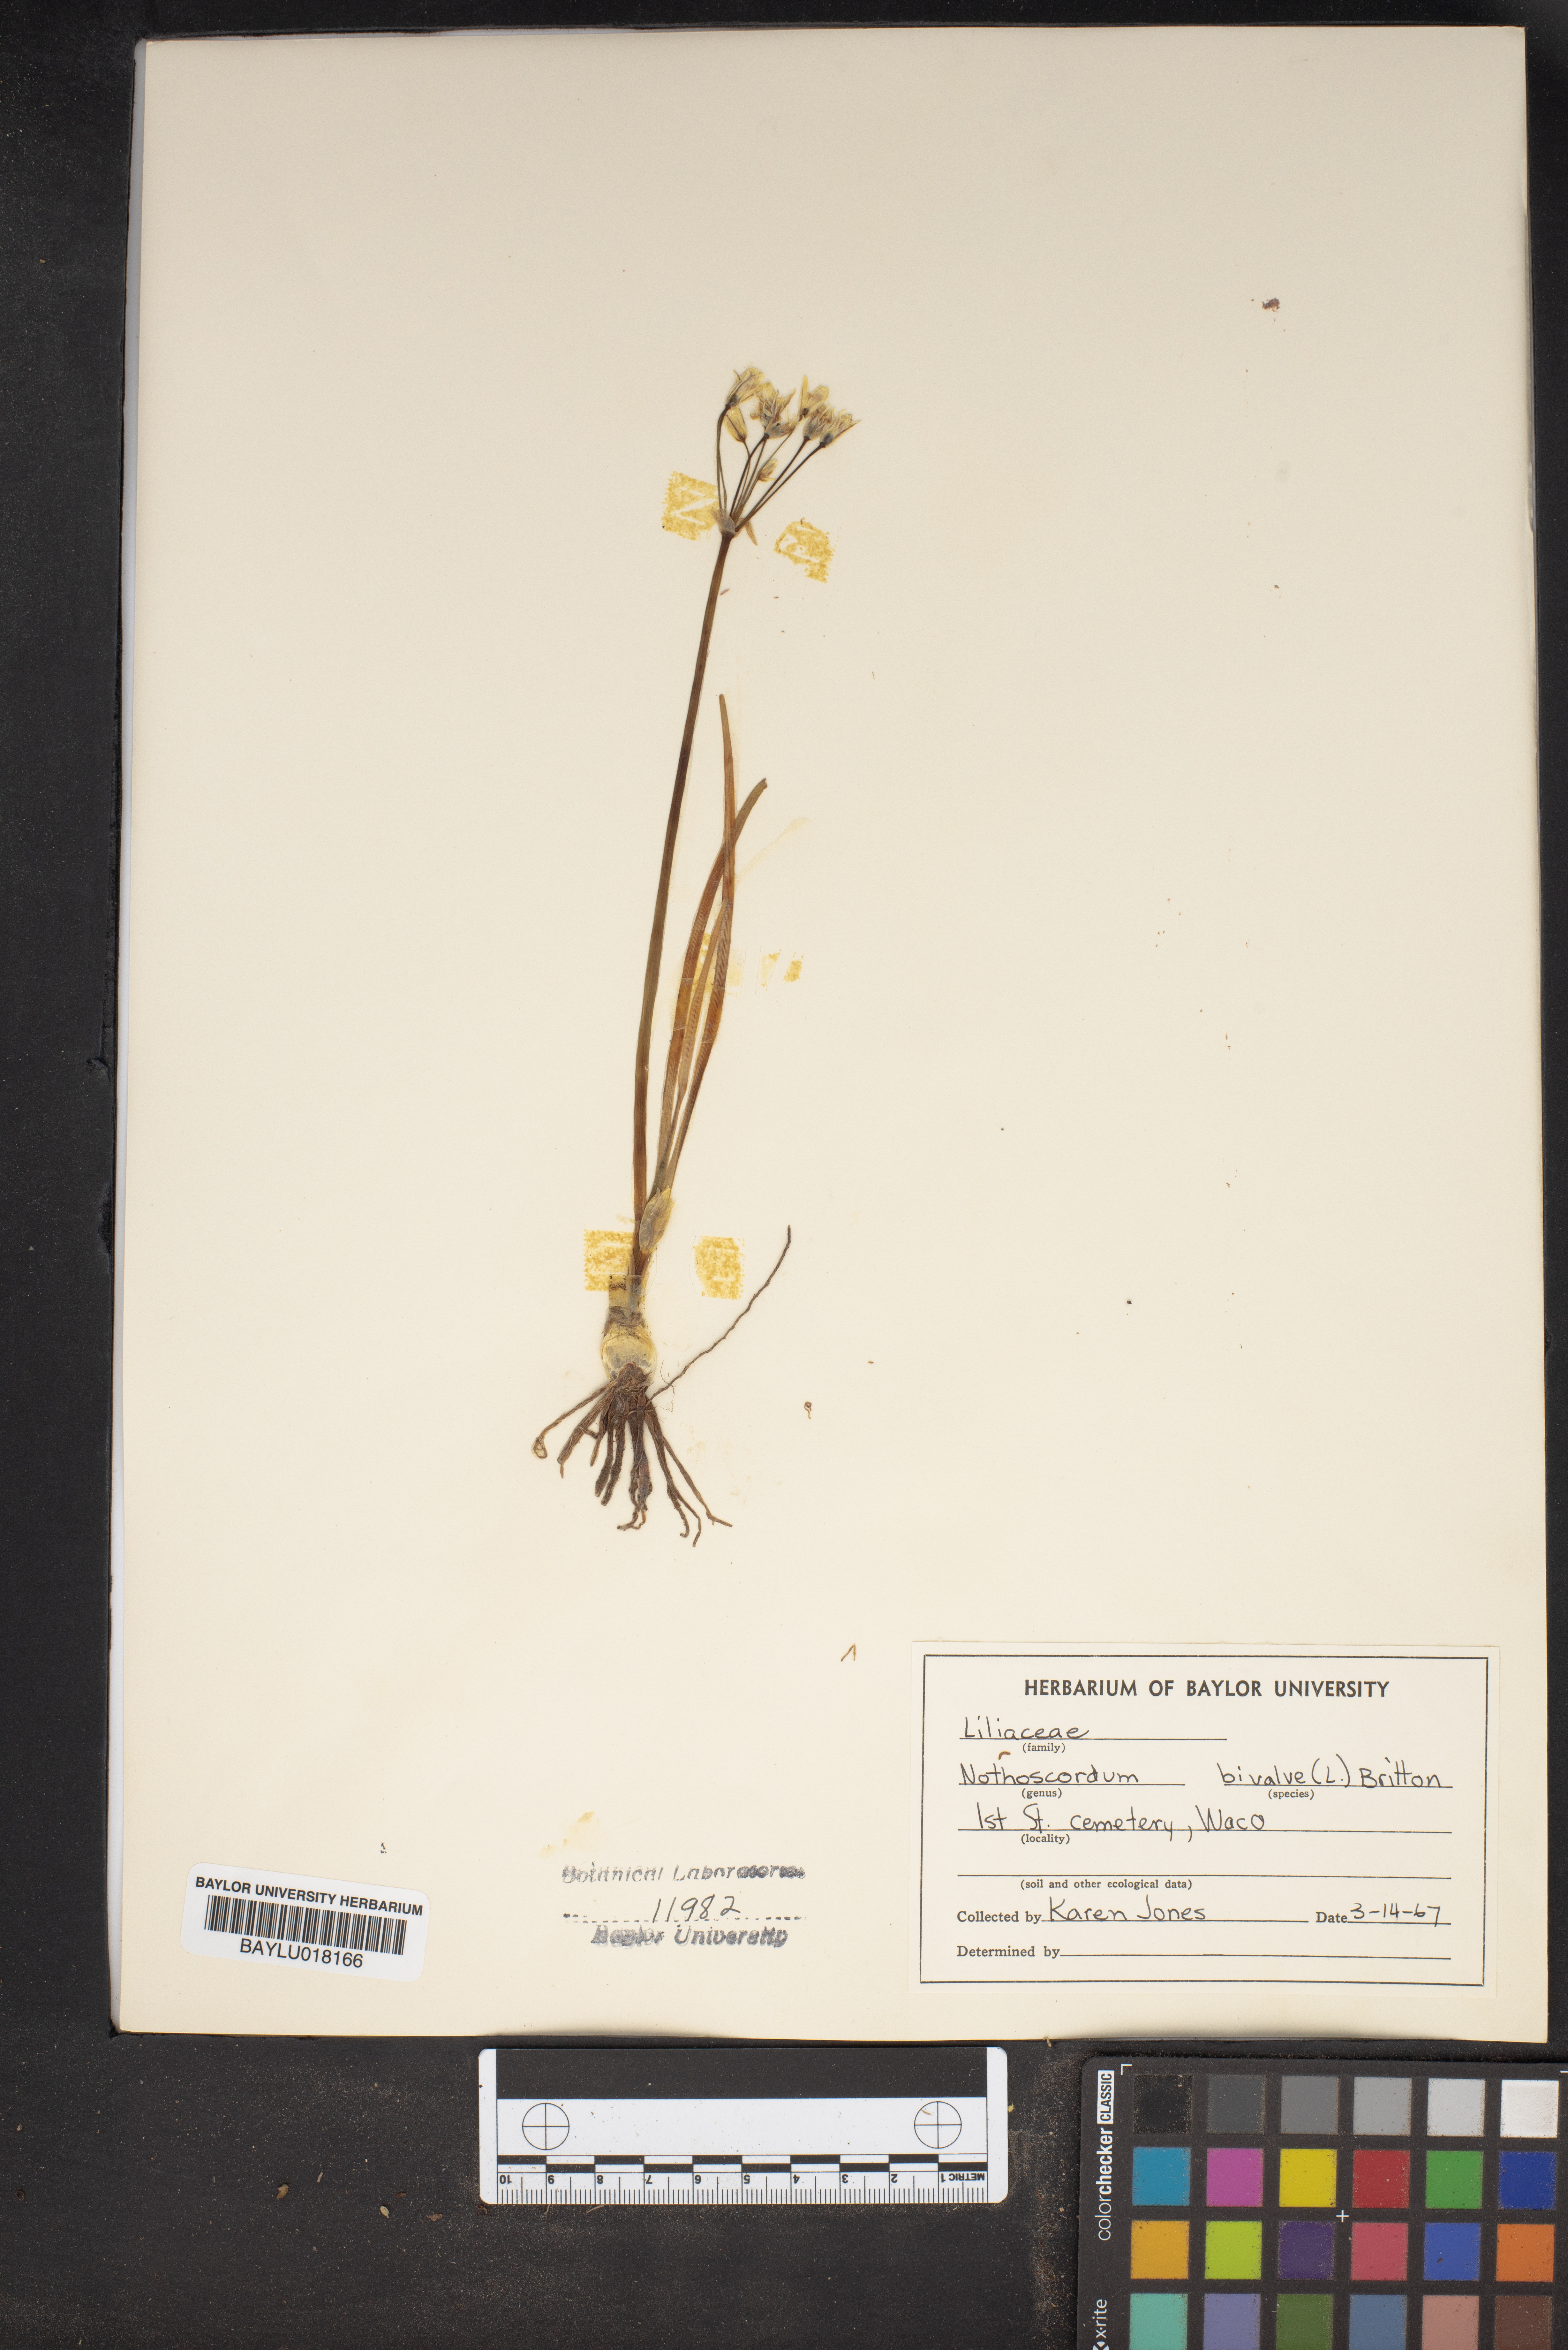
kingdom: Plantae
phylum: Tracheophyta
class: Liliopsida
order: Asparagales
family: Amaryllidaceae
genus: Nothoscordum
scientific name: Nothoscordum bivalve
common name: Crow-poison
